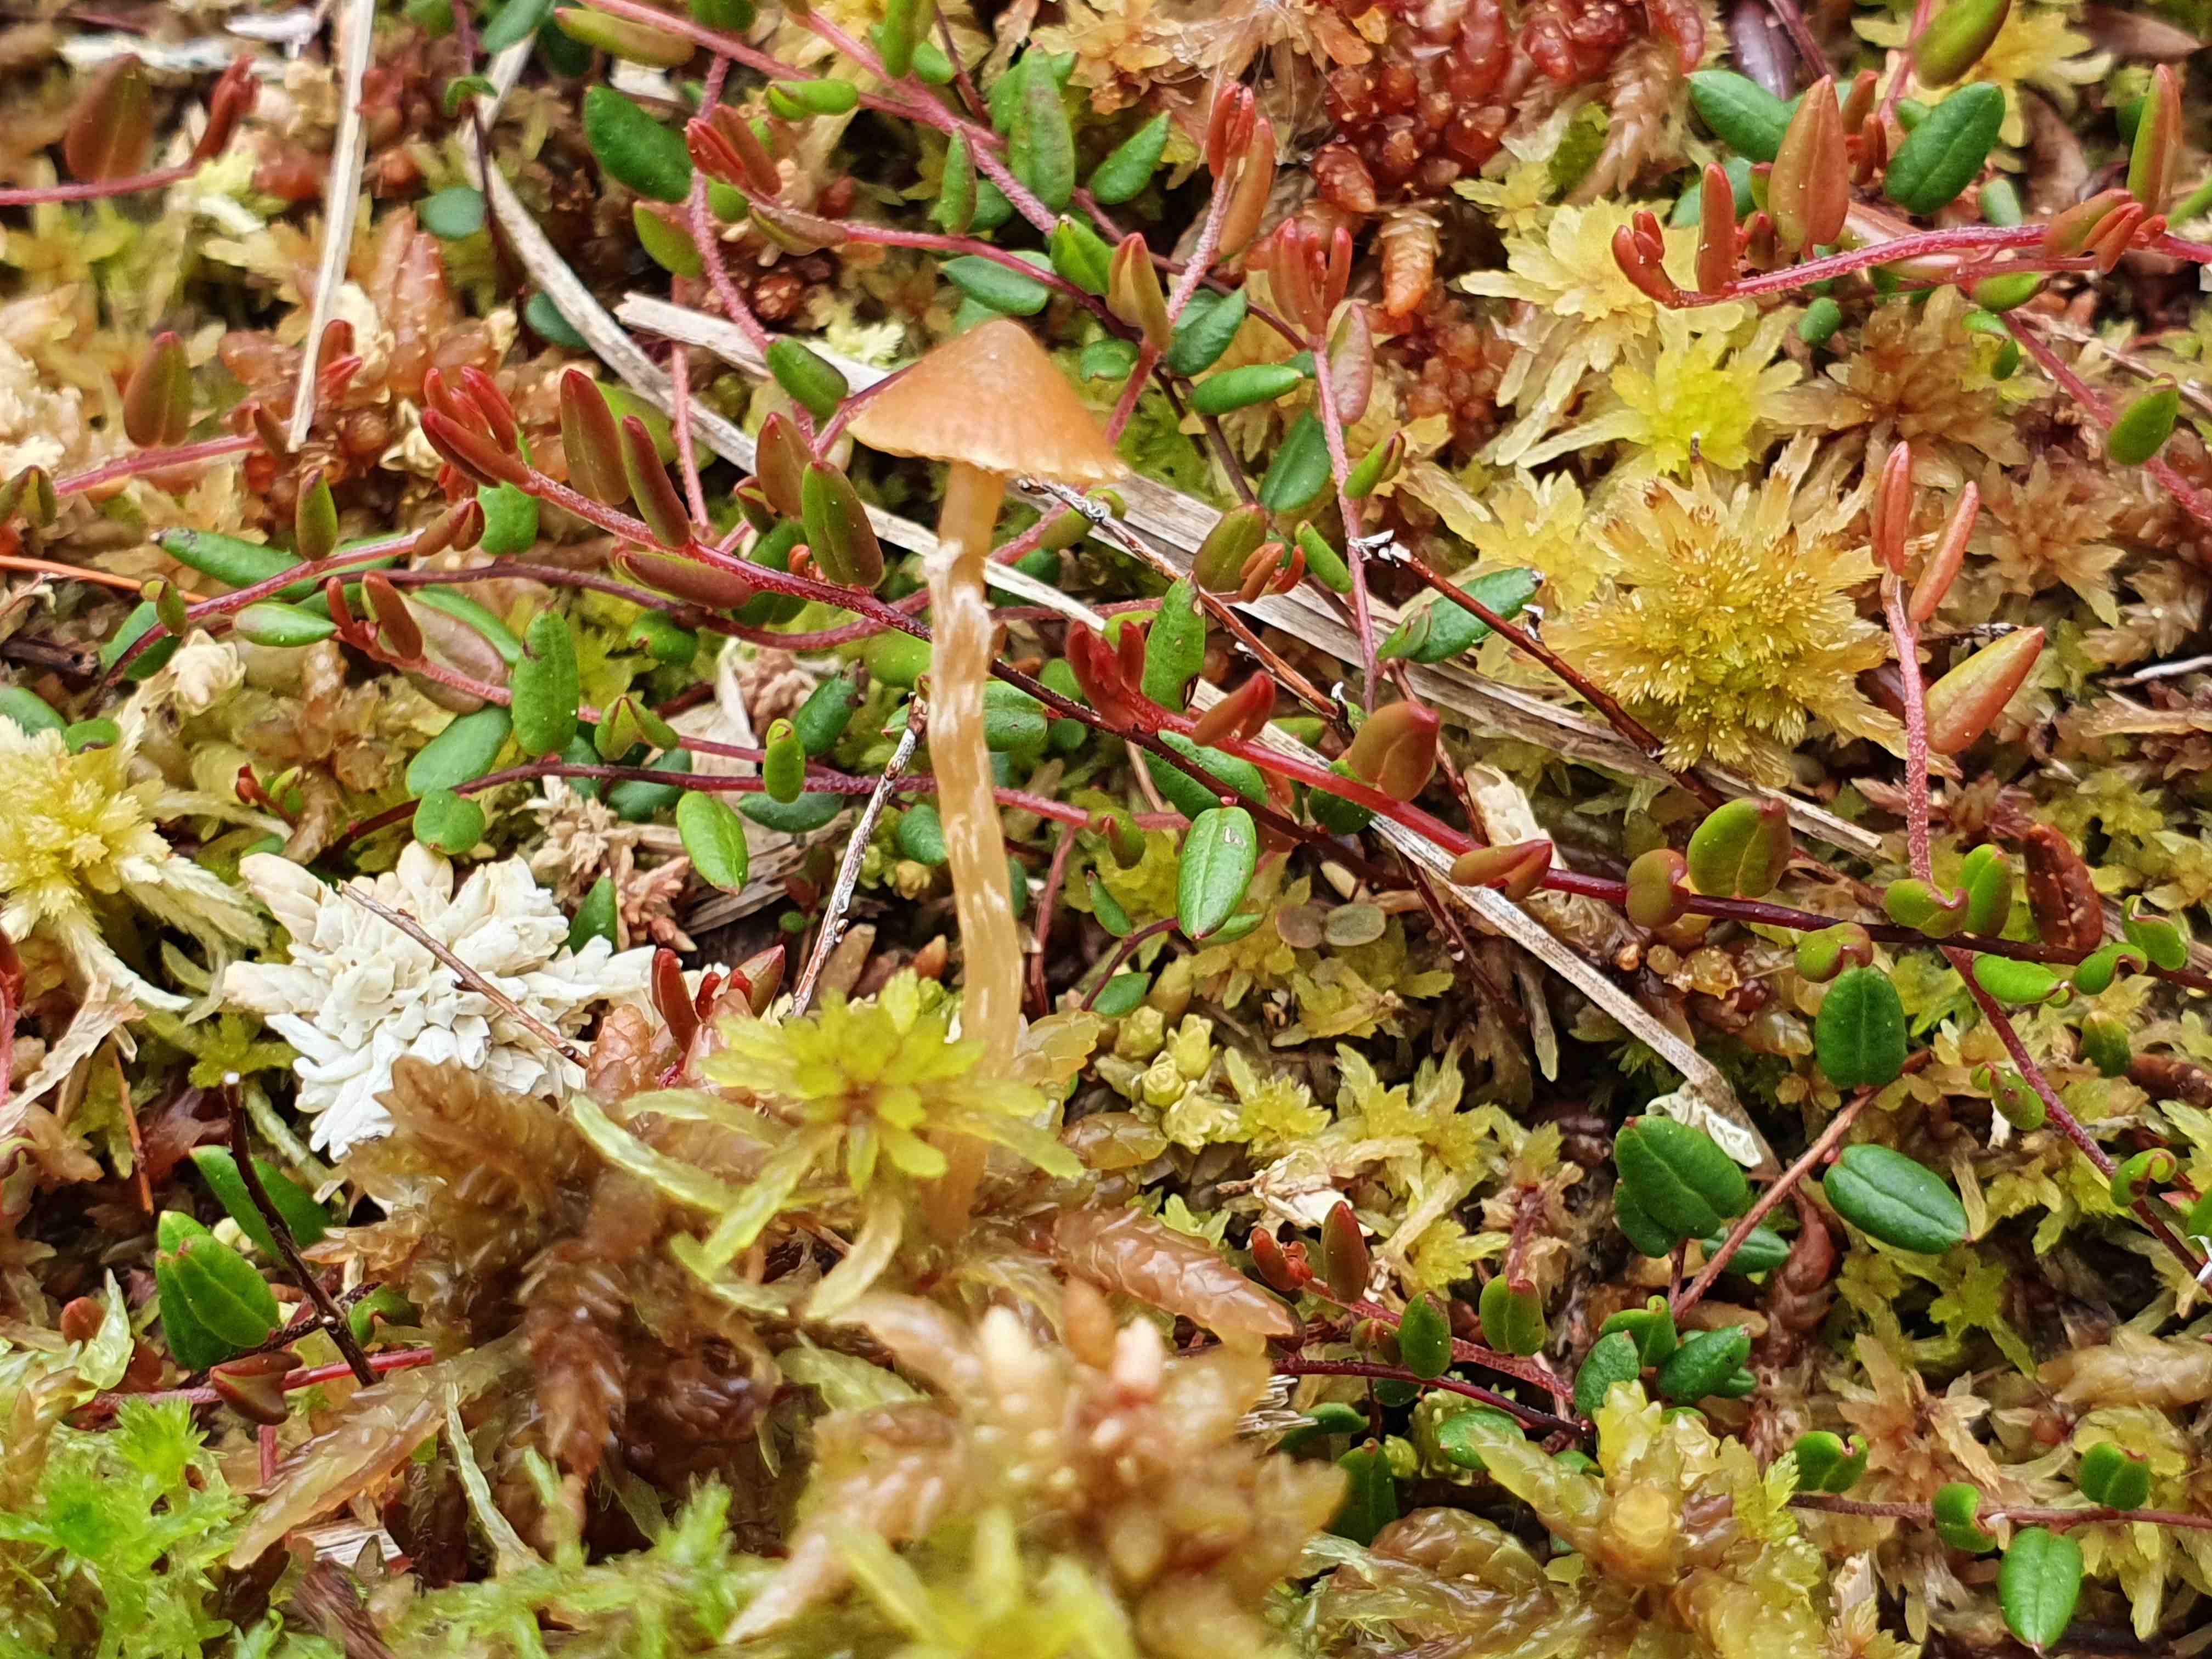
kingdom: Fungi
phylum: Basidiomycota
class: Agaricomycetes
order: Agaricales
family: Hymenogastraceae
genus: Galerina
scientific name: Galerina paludosa
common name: mose-hjelmhat
